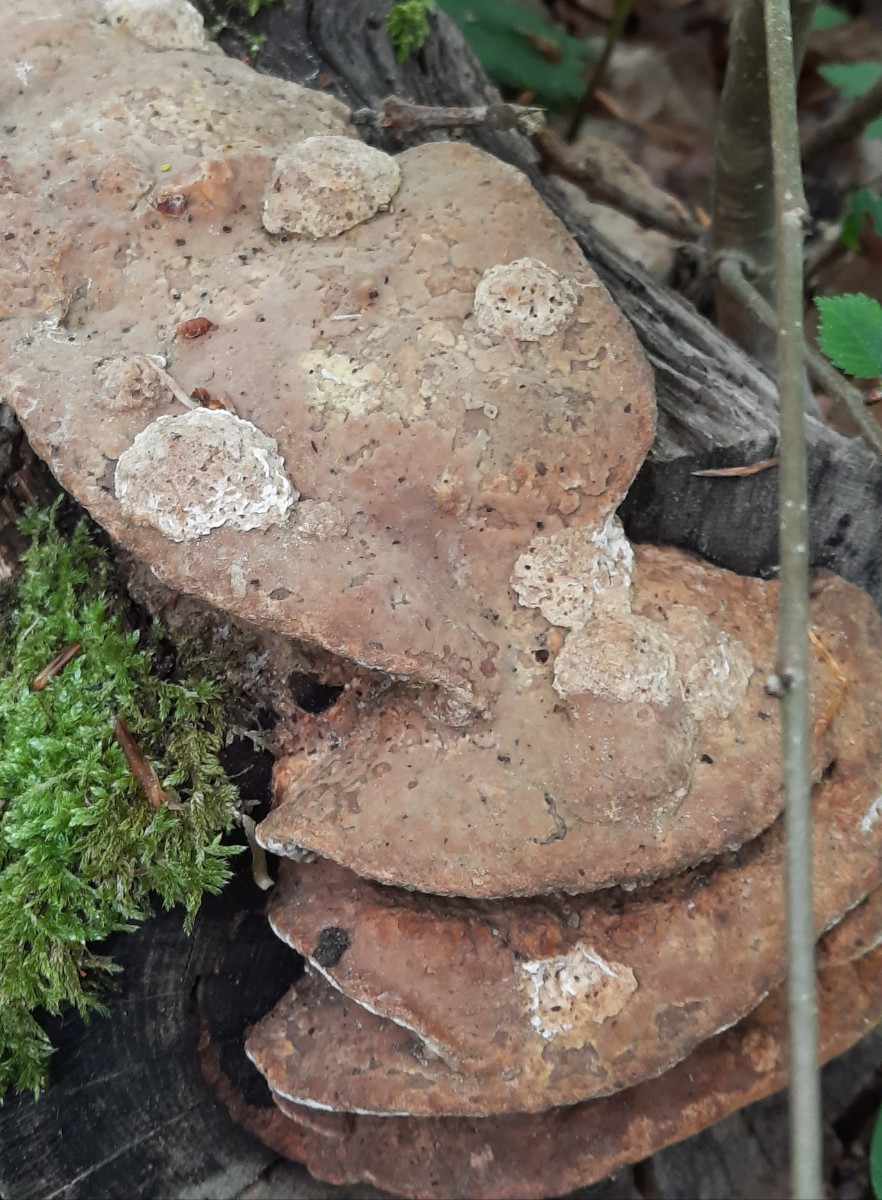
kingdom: Fungi
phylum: Basidiomycota
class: Agaricomycetes
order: Polyporales
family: Fomitopsidaceae
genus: Daedalea
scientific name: Daedalea quercina
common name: ege-labyrintsvamp
